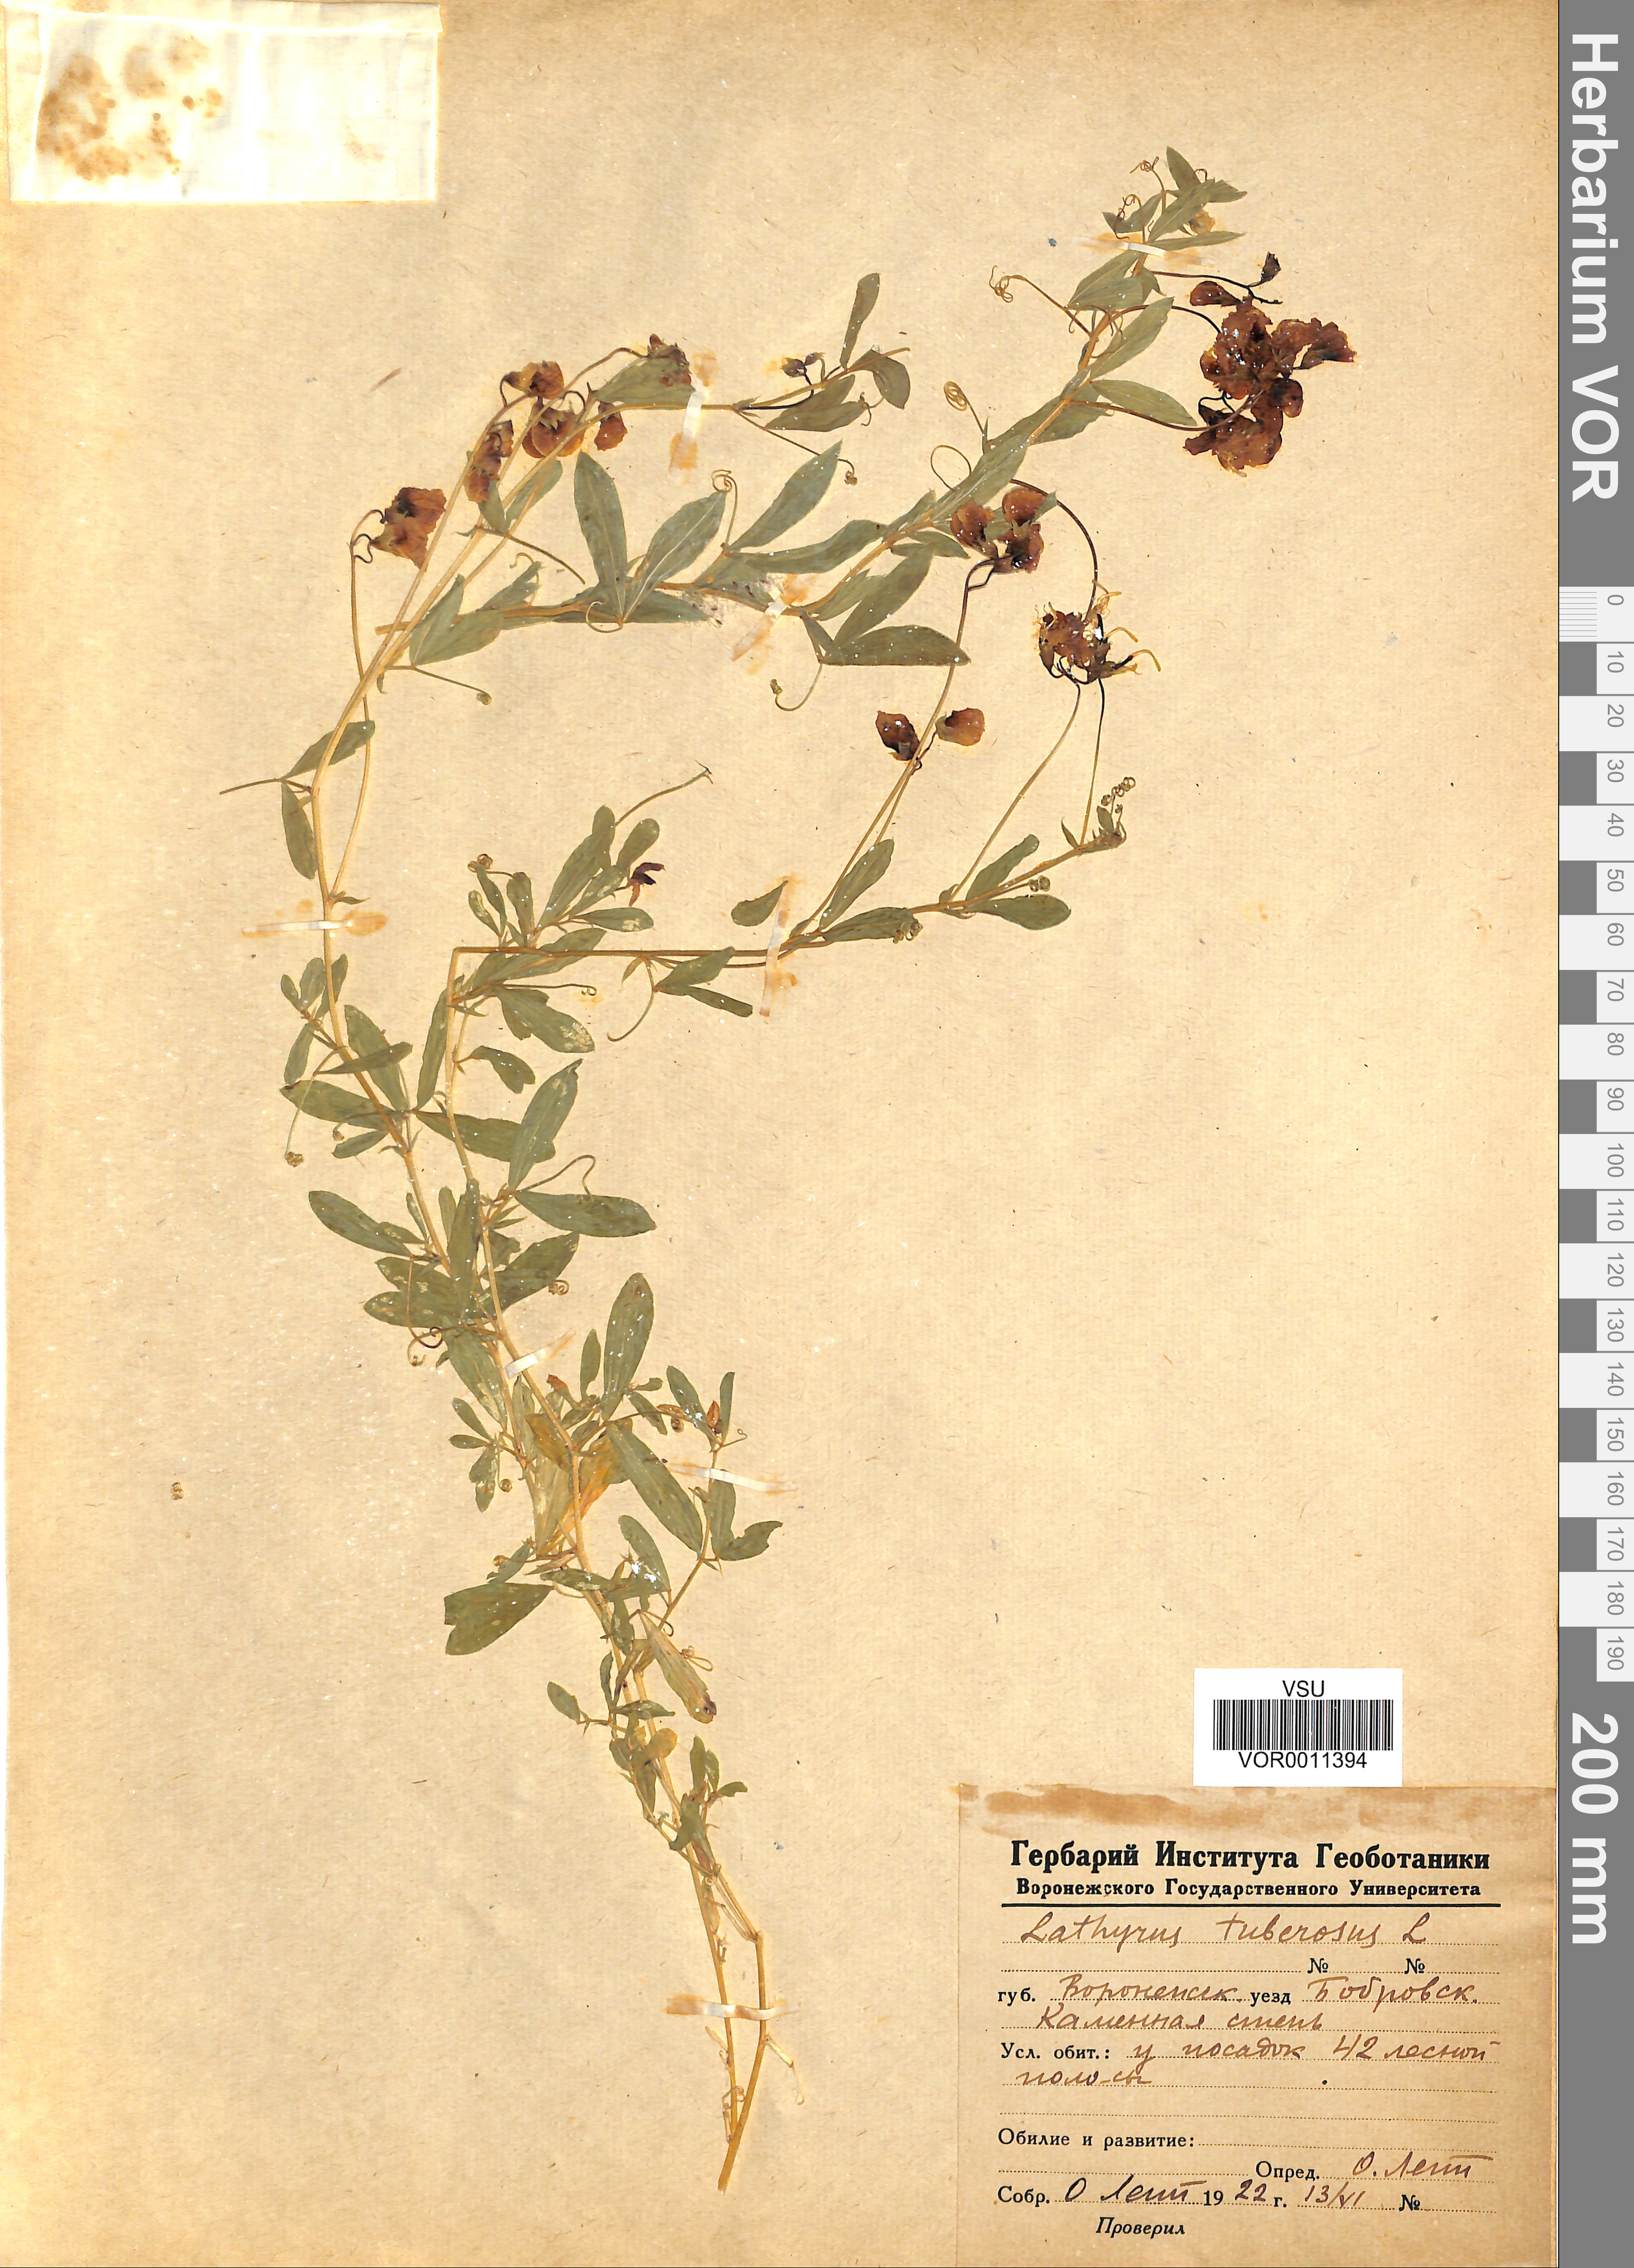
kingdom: Plantae
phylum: Tracheophyta
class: Magnoliopsida
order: Fabales
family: Fabaceae
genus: Lathyrus
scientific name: Lathyrus tuberosus
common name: Tuberous pea
